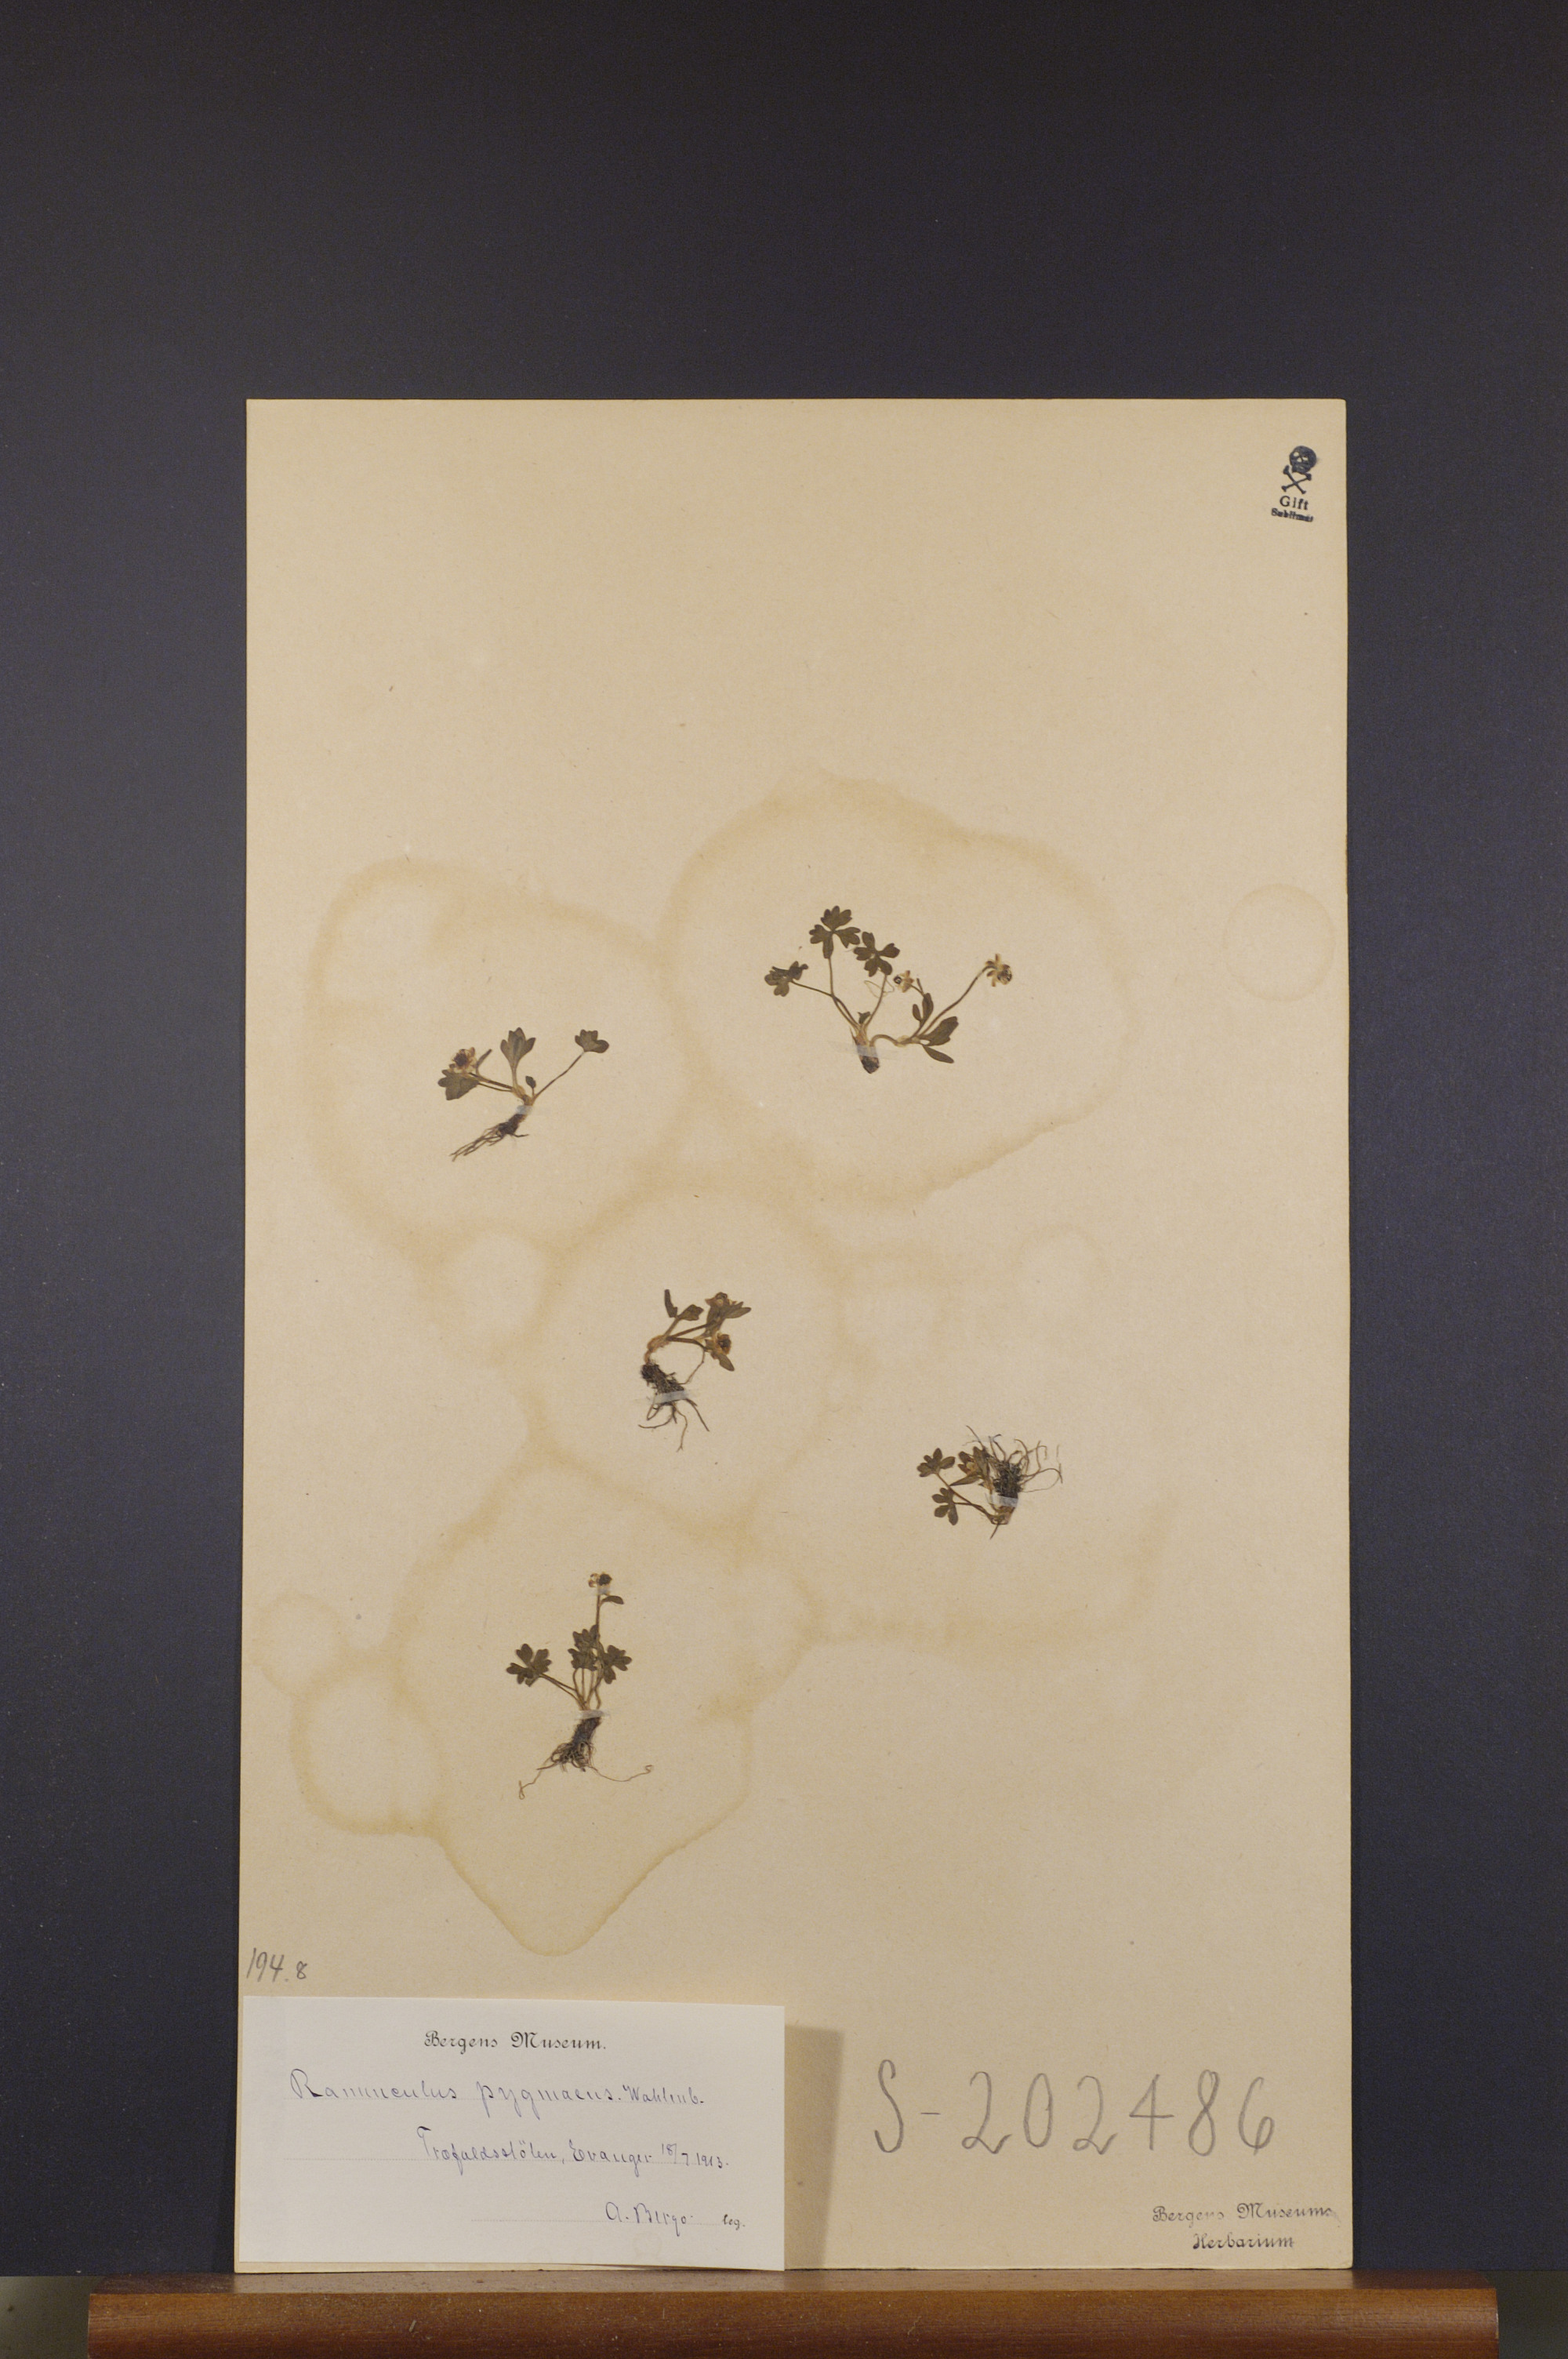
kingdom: Plantae
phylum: Tracheophyta
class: Magnoliopsida
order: Ranunculales
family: Ranunculaceae
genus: Ranunculus
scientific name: Ranunculus pygmaeus
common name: Dwarf buttercup
